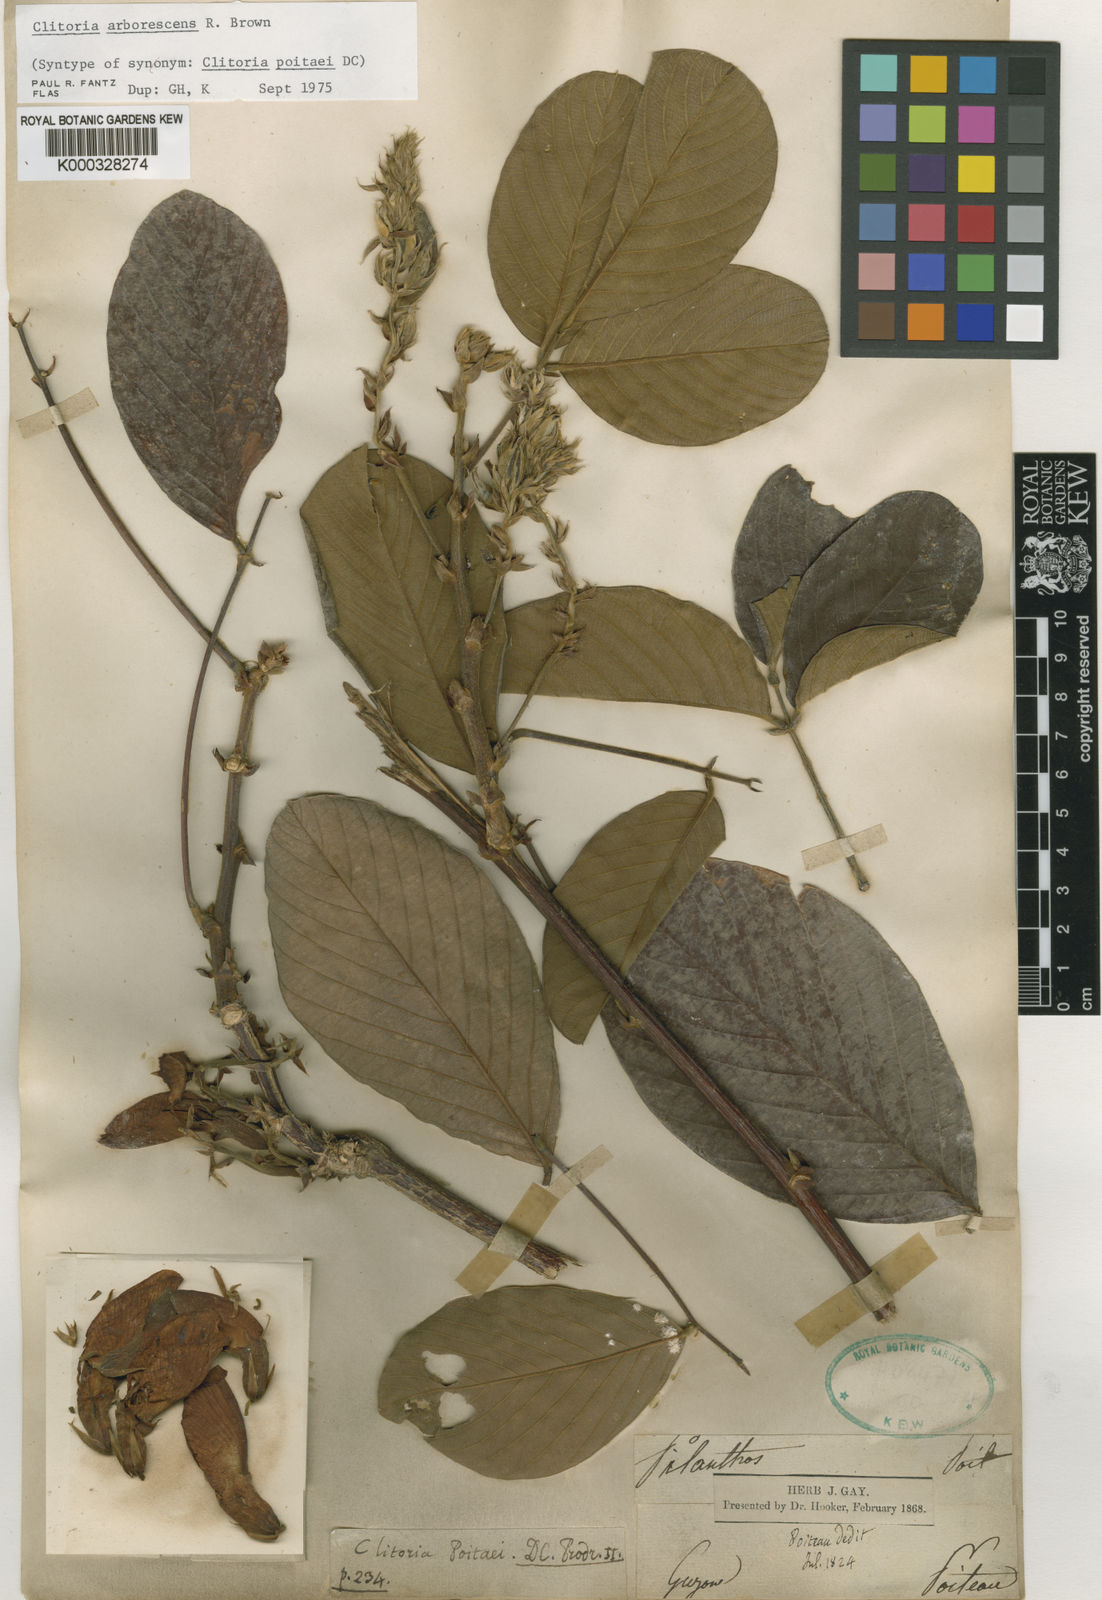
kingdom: Plantae
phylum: Tracheophyta
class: Magnoliopsida
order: Fabales
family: Fabaceae
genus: Clitoria
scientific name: Clitoria arborescens
